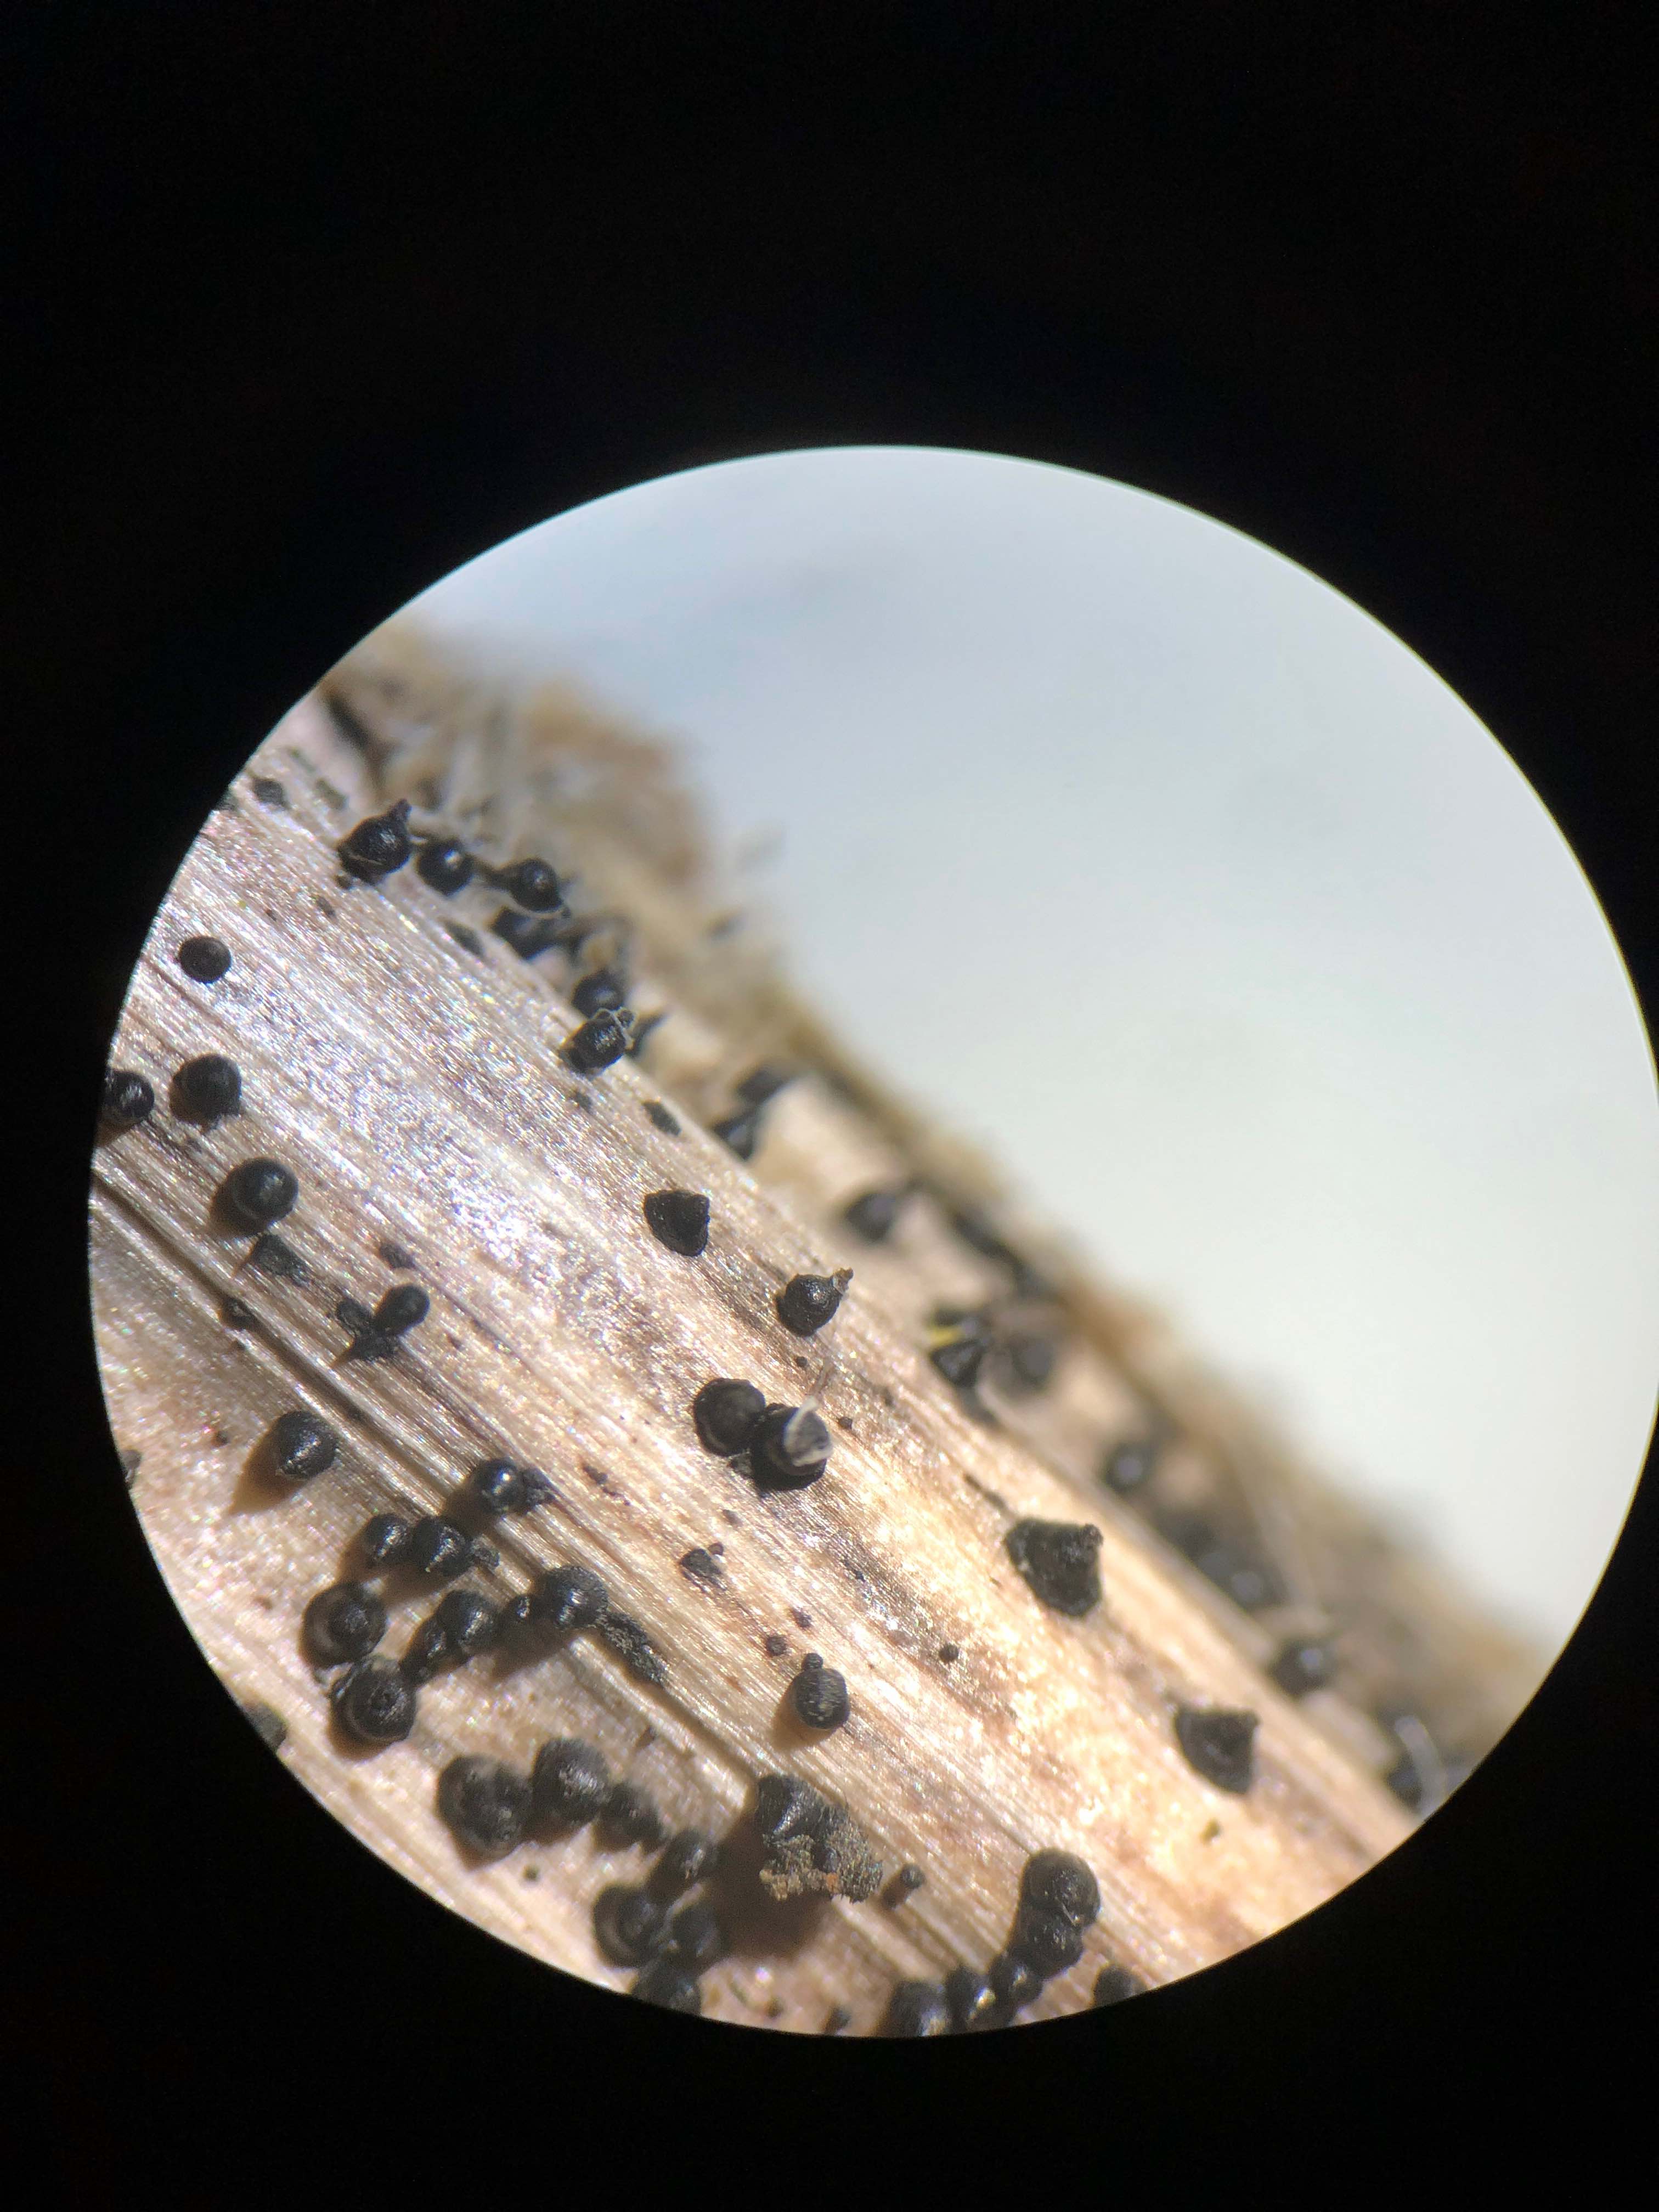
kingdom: Fungi
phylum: Ascomycota
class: Dothideomycetes
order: Pleosporales
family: Leptosphaeriaceae
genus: Leptosphaeria
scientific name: Leptosphaeria acuta
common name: spids kulkegle
